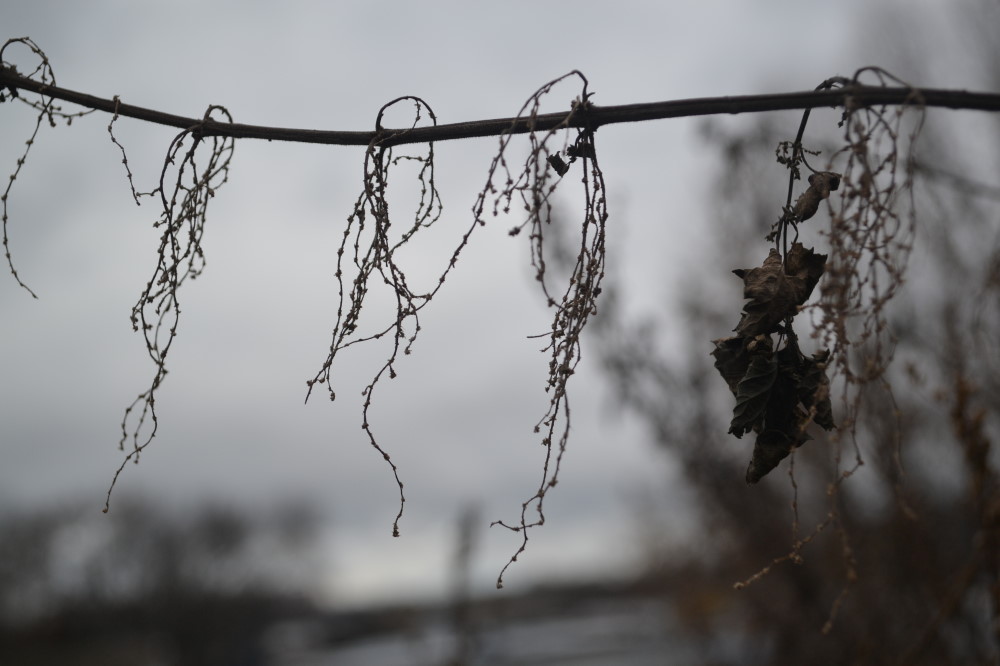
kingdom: Plantae
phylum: Tracheophyta
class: Magnoliopsida
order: Rosales
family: Urticaceae
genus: Urtica
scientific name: Urtica dioica
